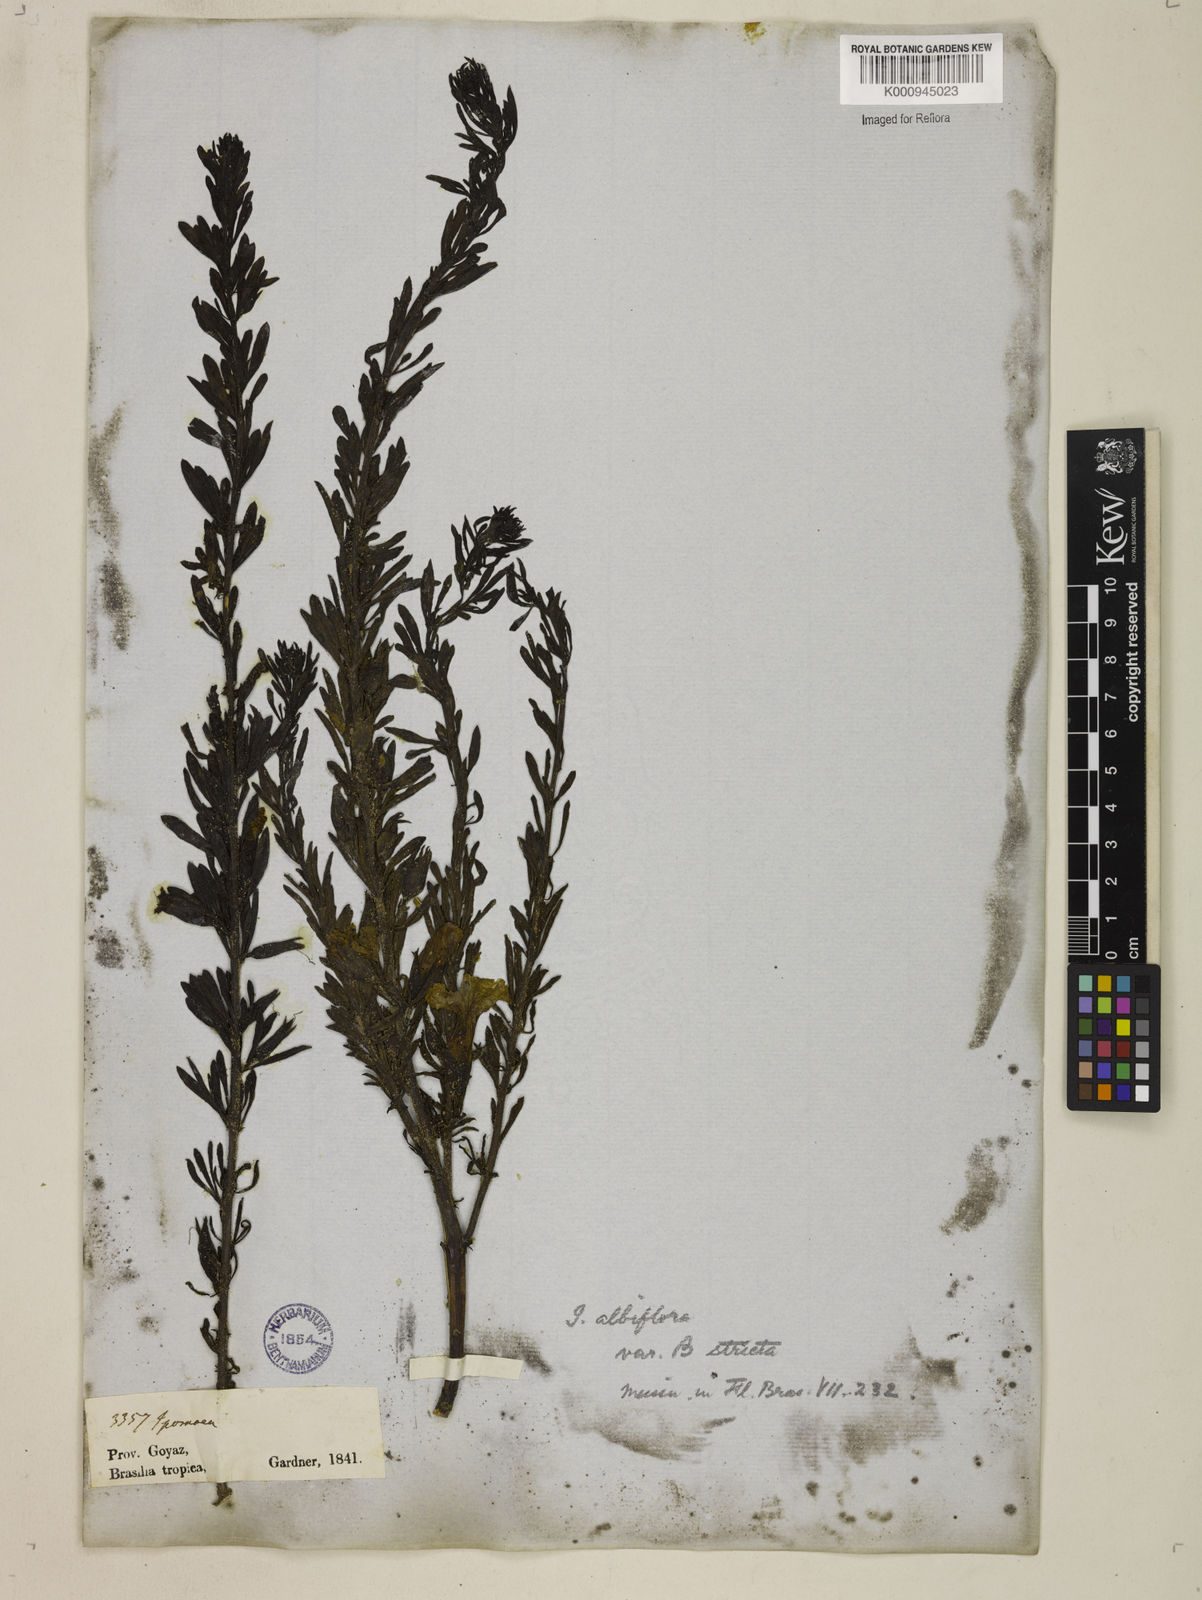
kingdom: Plantae
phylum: Tracheophyta
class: Magnoliopsida
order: Solanales
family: Convolvulaceae
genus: Distimake
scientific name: Distimake ericoides
